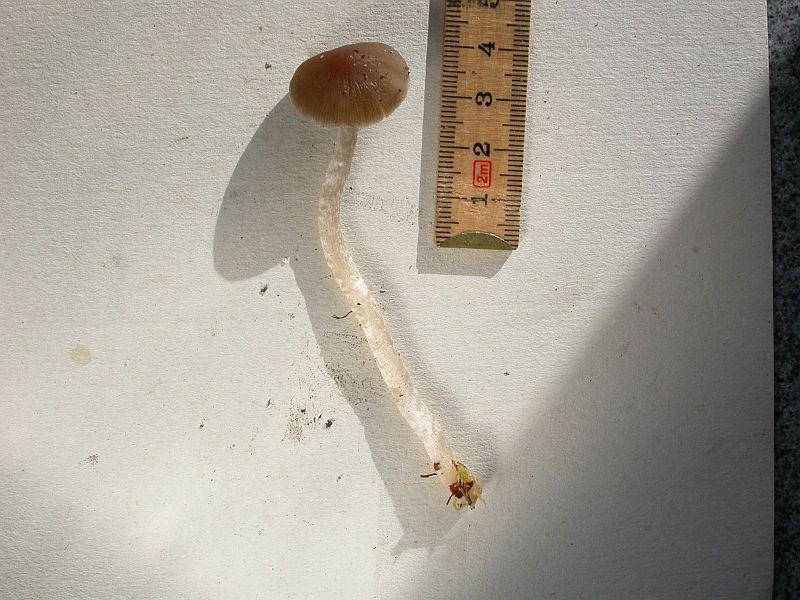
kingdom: Fungi
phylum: Basidiomycota
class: Agaricomycetes
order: Agaricales
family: Psathyrellaceae
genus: Psathyrella
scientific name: Psathyrella
